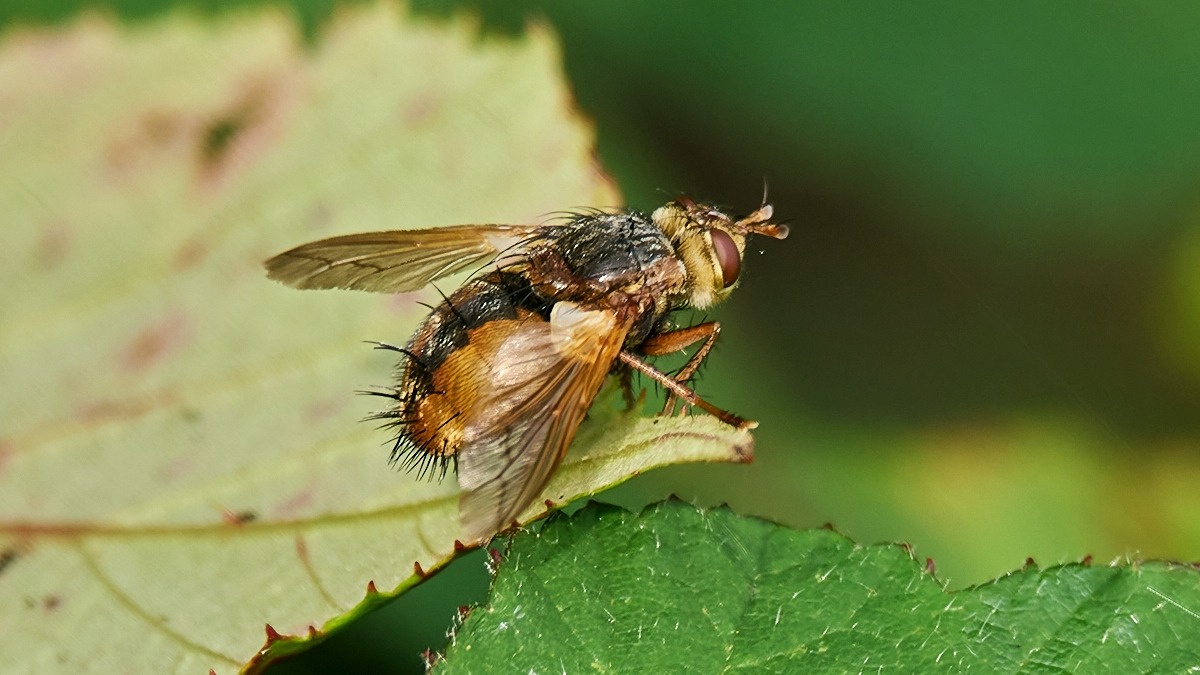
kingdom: Animalia
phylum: Arthropoda
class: Insecta
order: Diptera
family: Tachinidae
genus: Tachina
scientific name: Tachina fera
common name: Mellemfluen oskar
